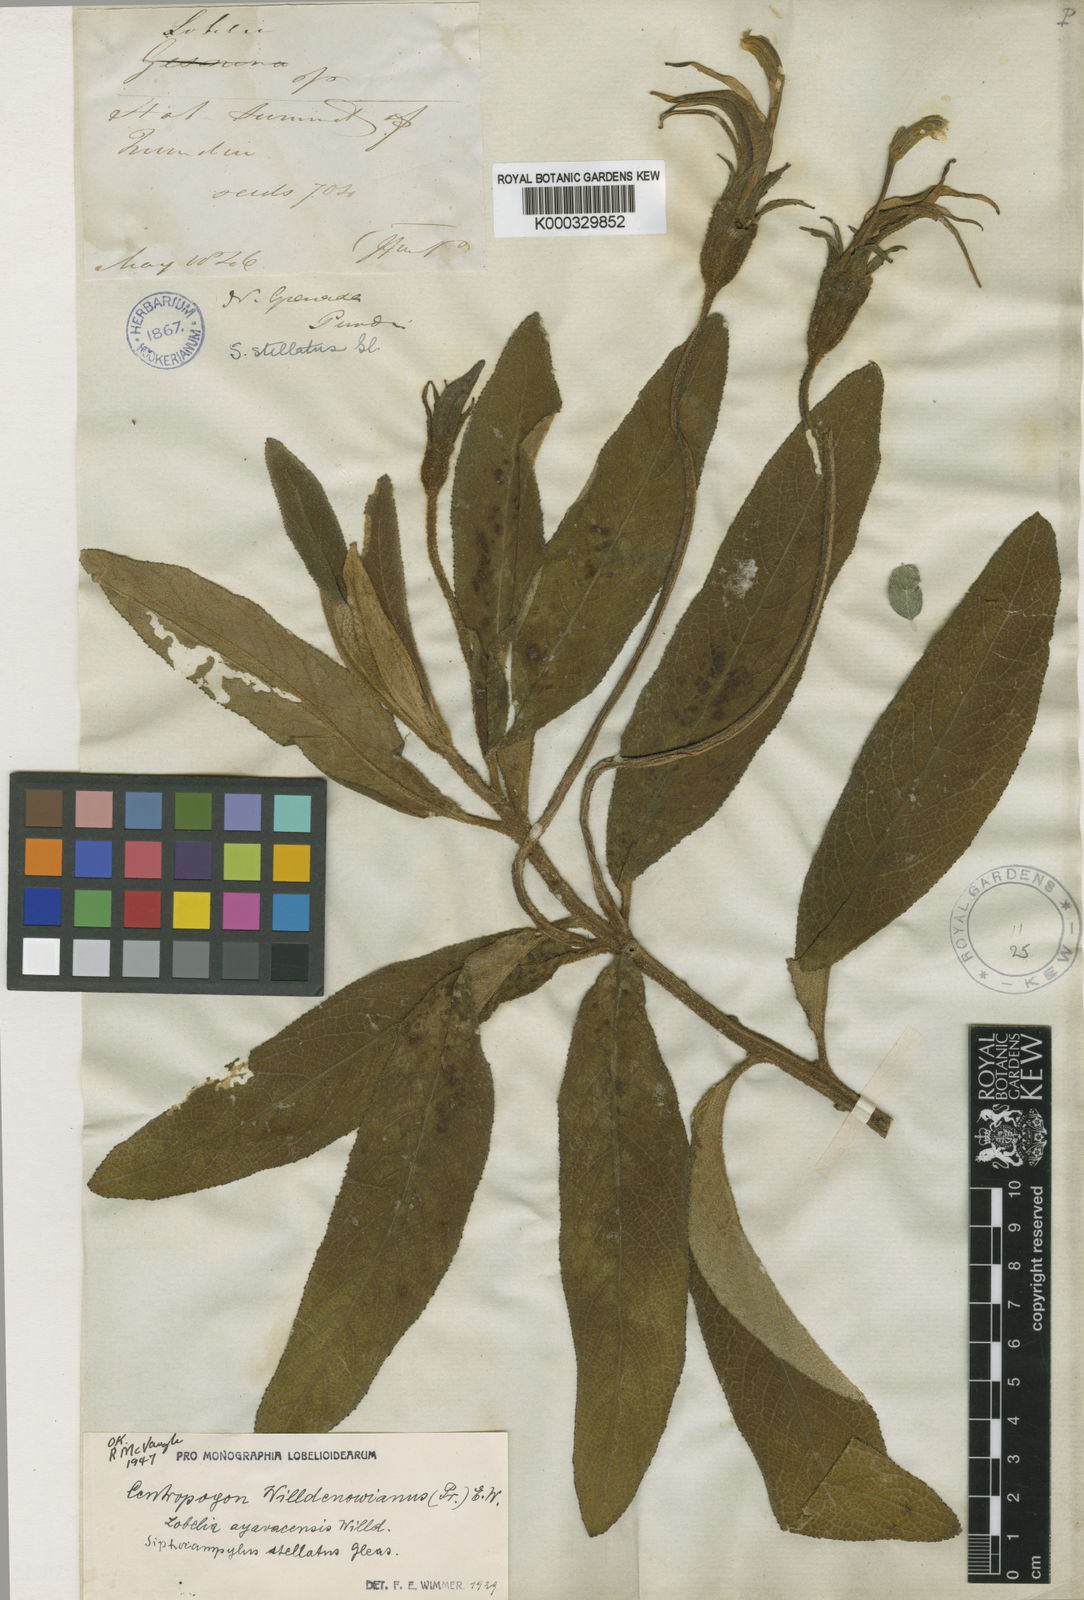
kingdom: Plantae
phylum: Tracheophyta
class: Magnoliopsida
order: Asterales
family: Campanulaceae
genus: Centropogon
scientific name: Centropogon ayavacensis
